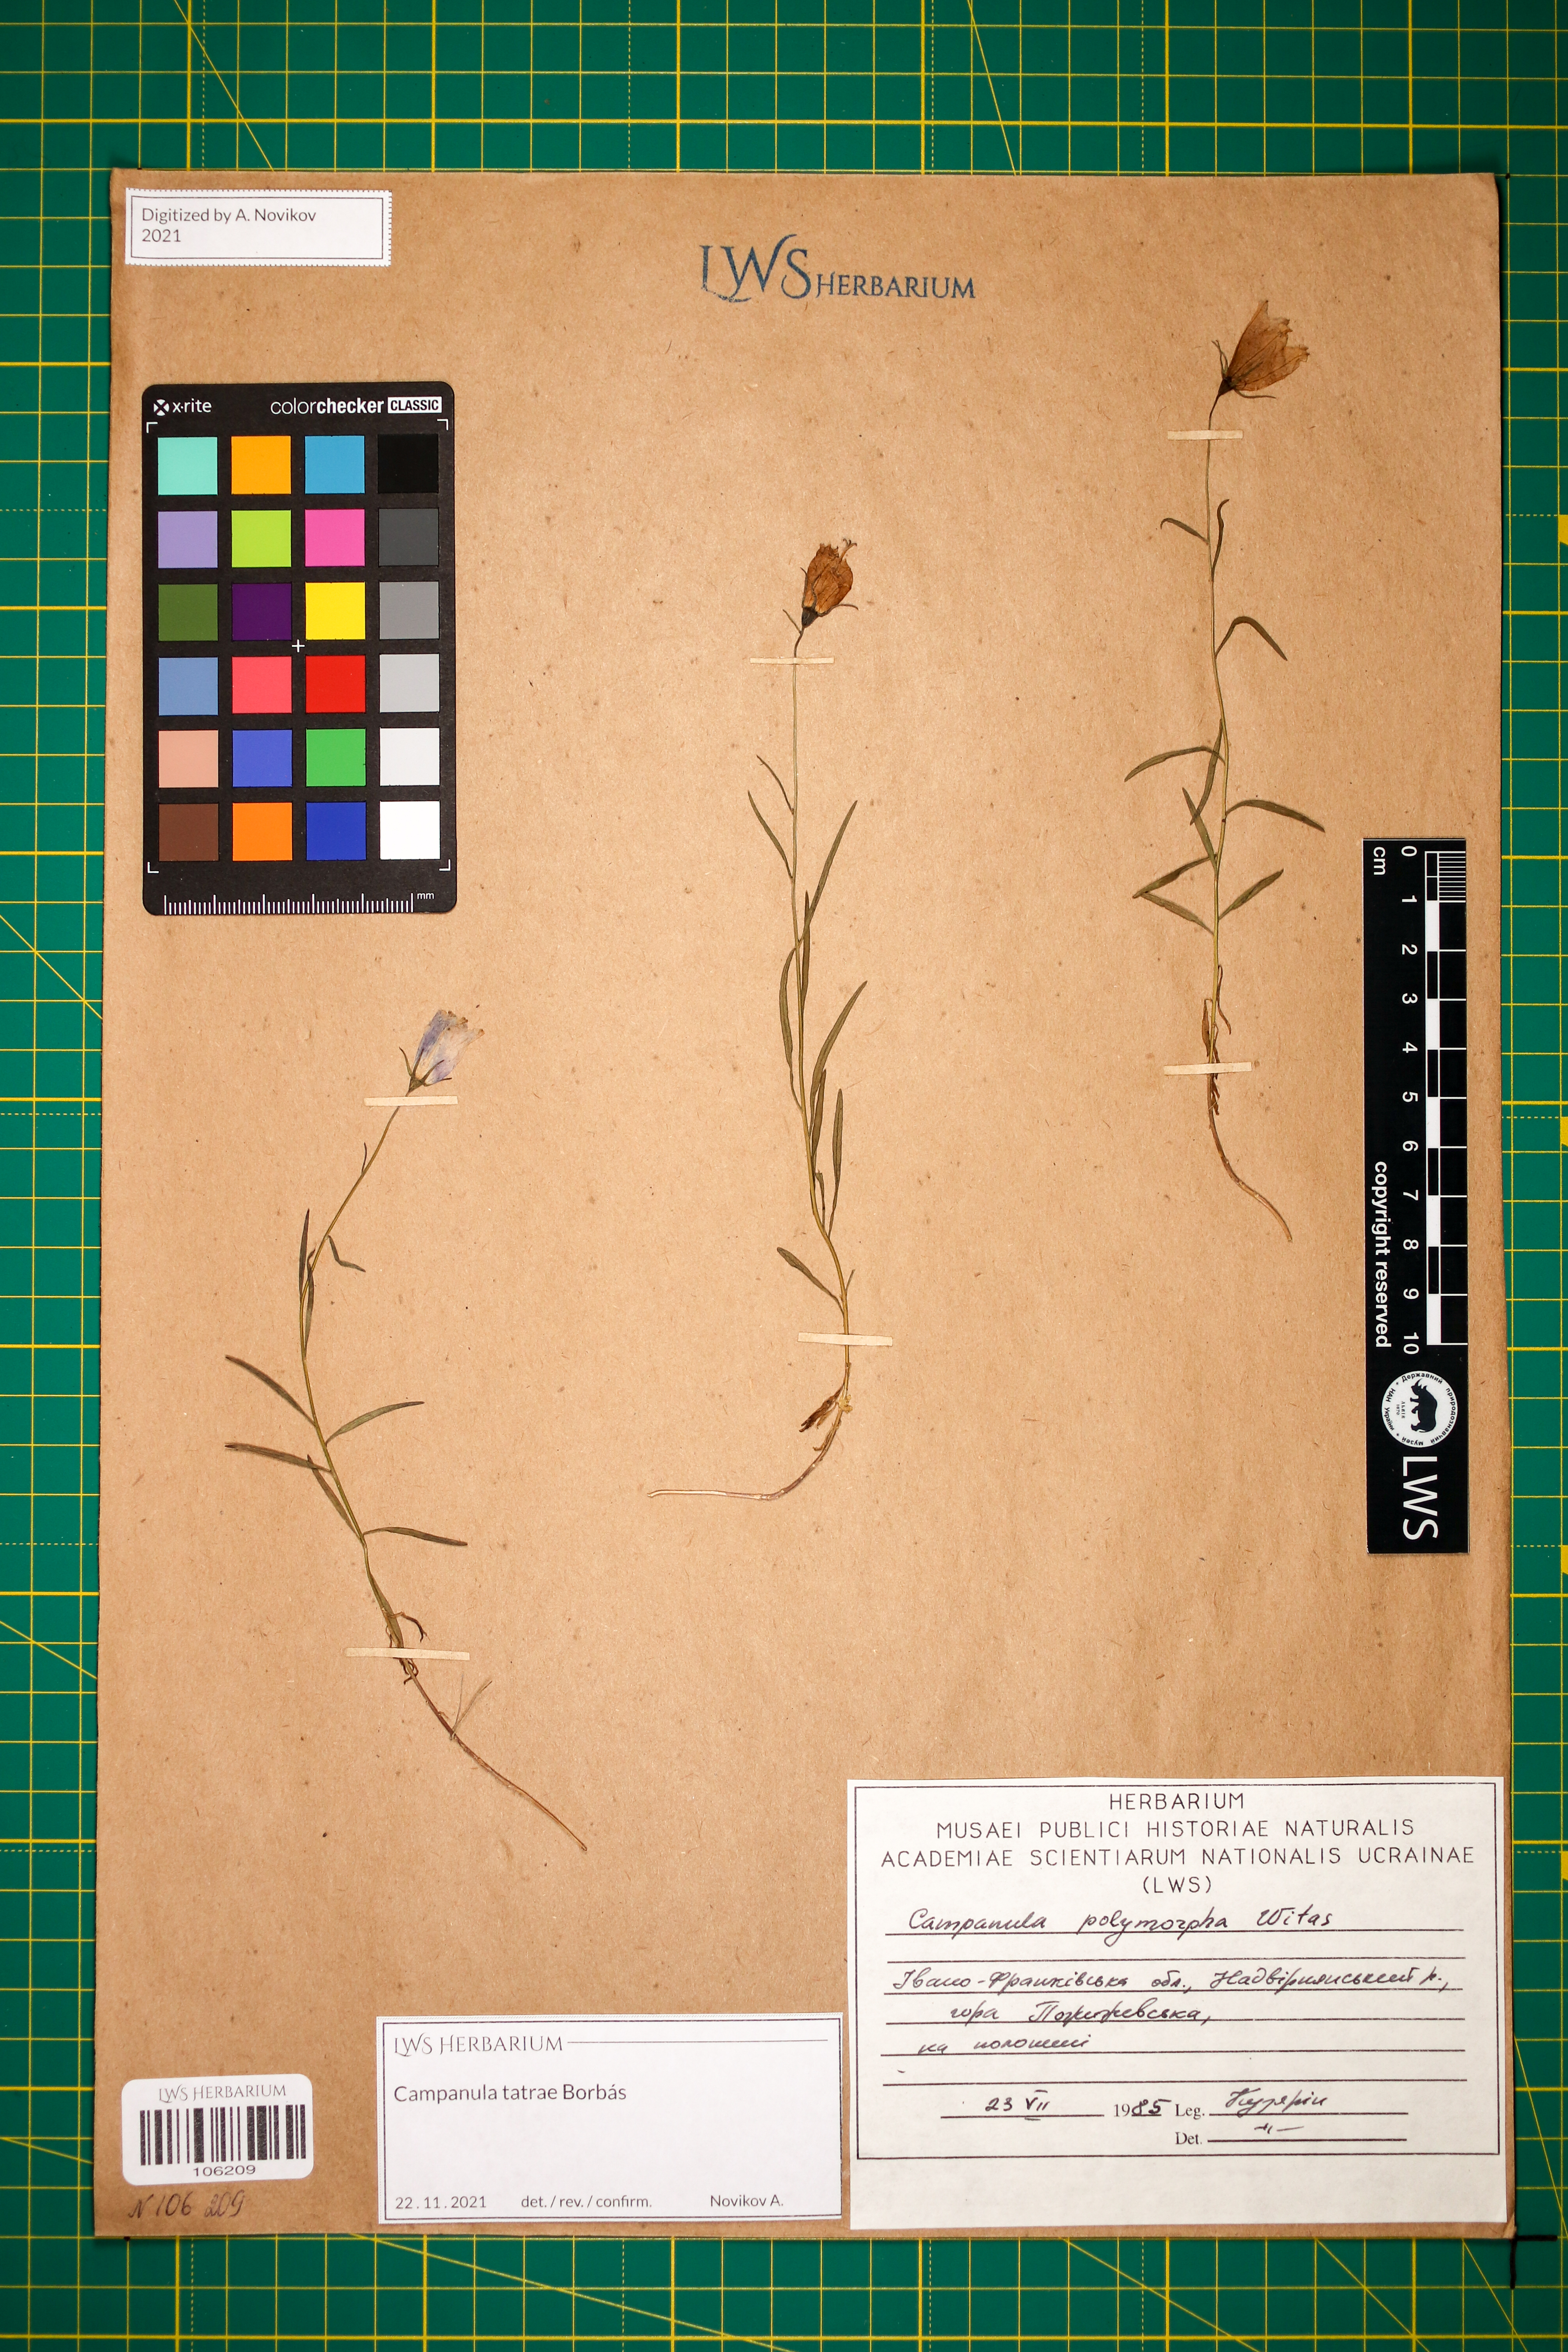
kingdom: Plantae
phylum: Tracheophyta
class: Magnoliopsida
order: Asterales
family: Campanulaceae
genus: Campanula
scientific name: Campanula tatrae
